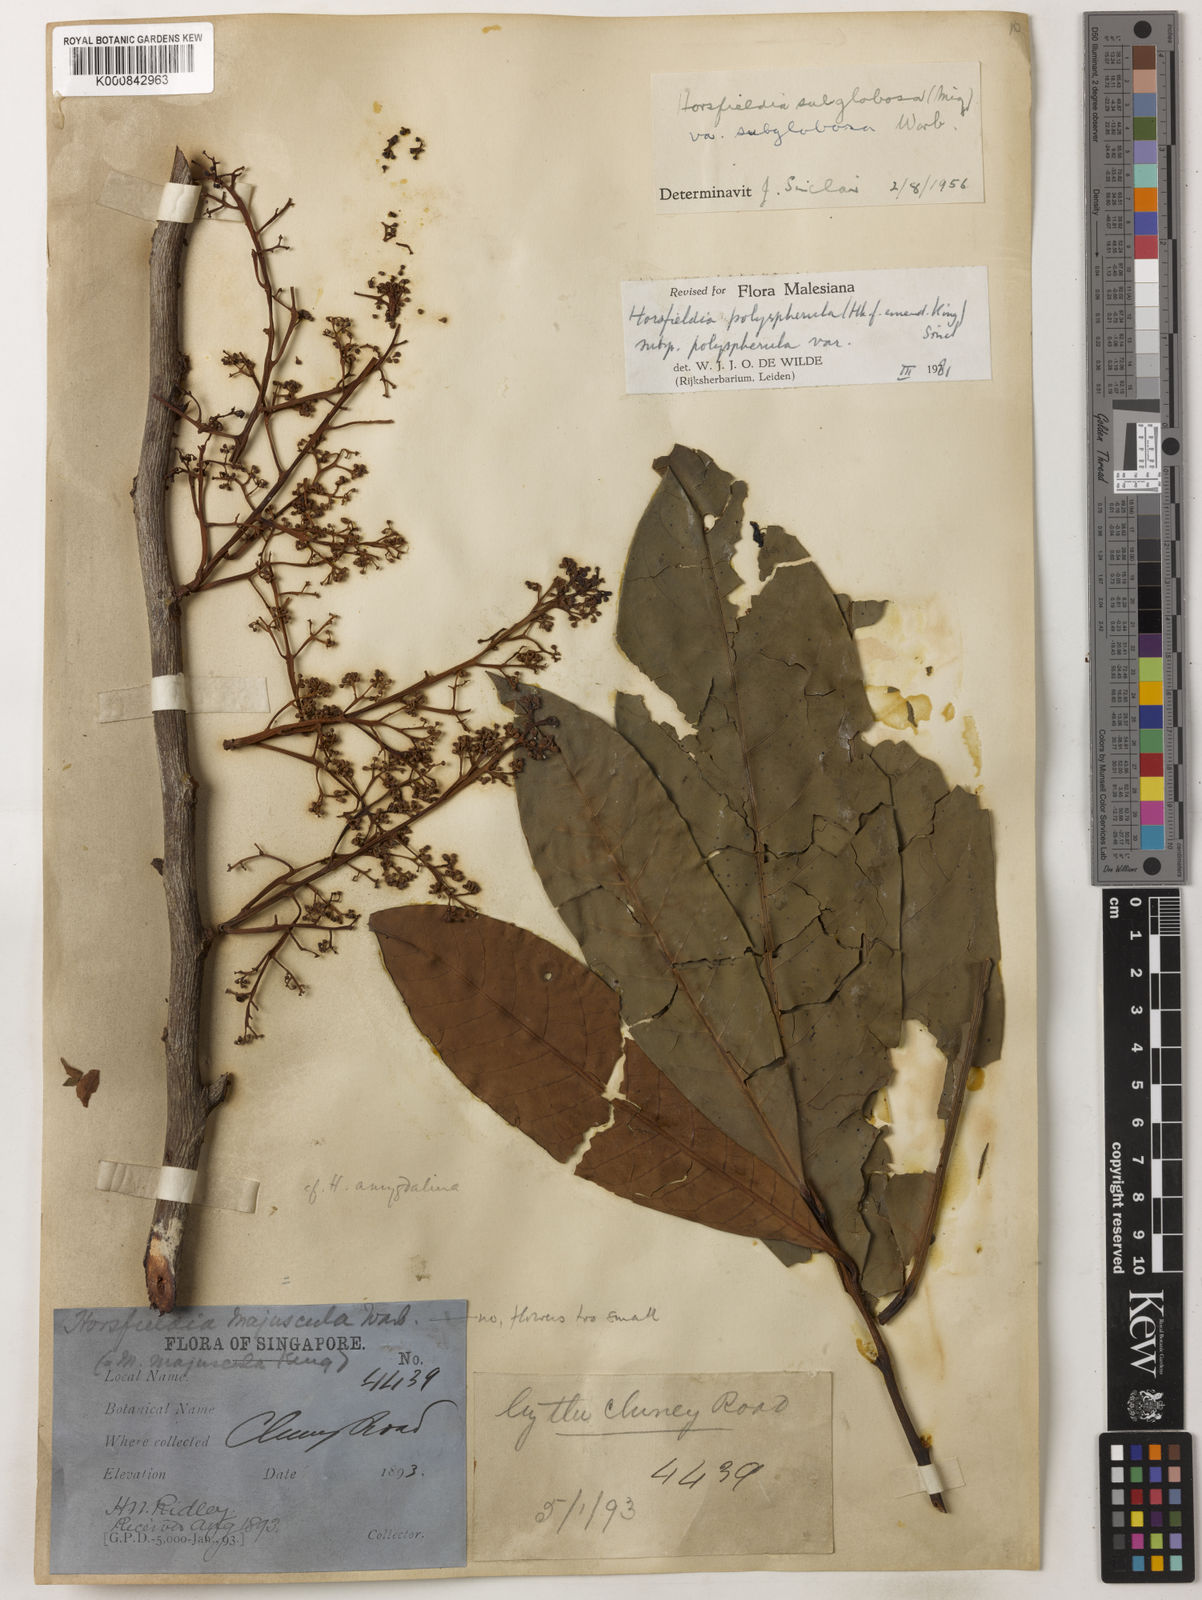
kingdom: Plantae
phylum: Tracheophyta
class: Magnoliopsida
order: Magnoliales
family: Myristicaceae
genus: Horsfieldia
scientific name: Horsfieldia
